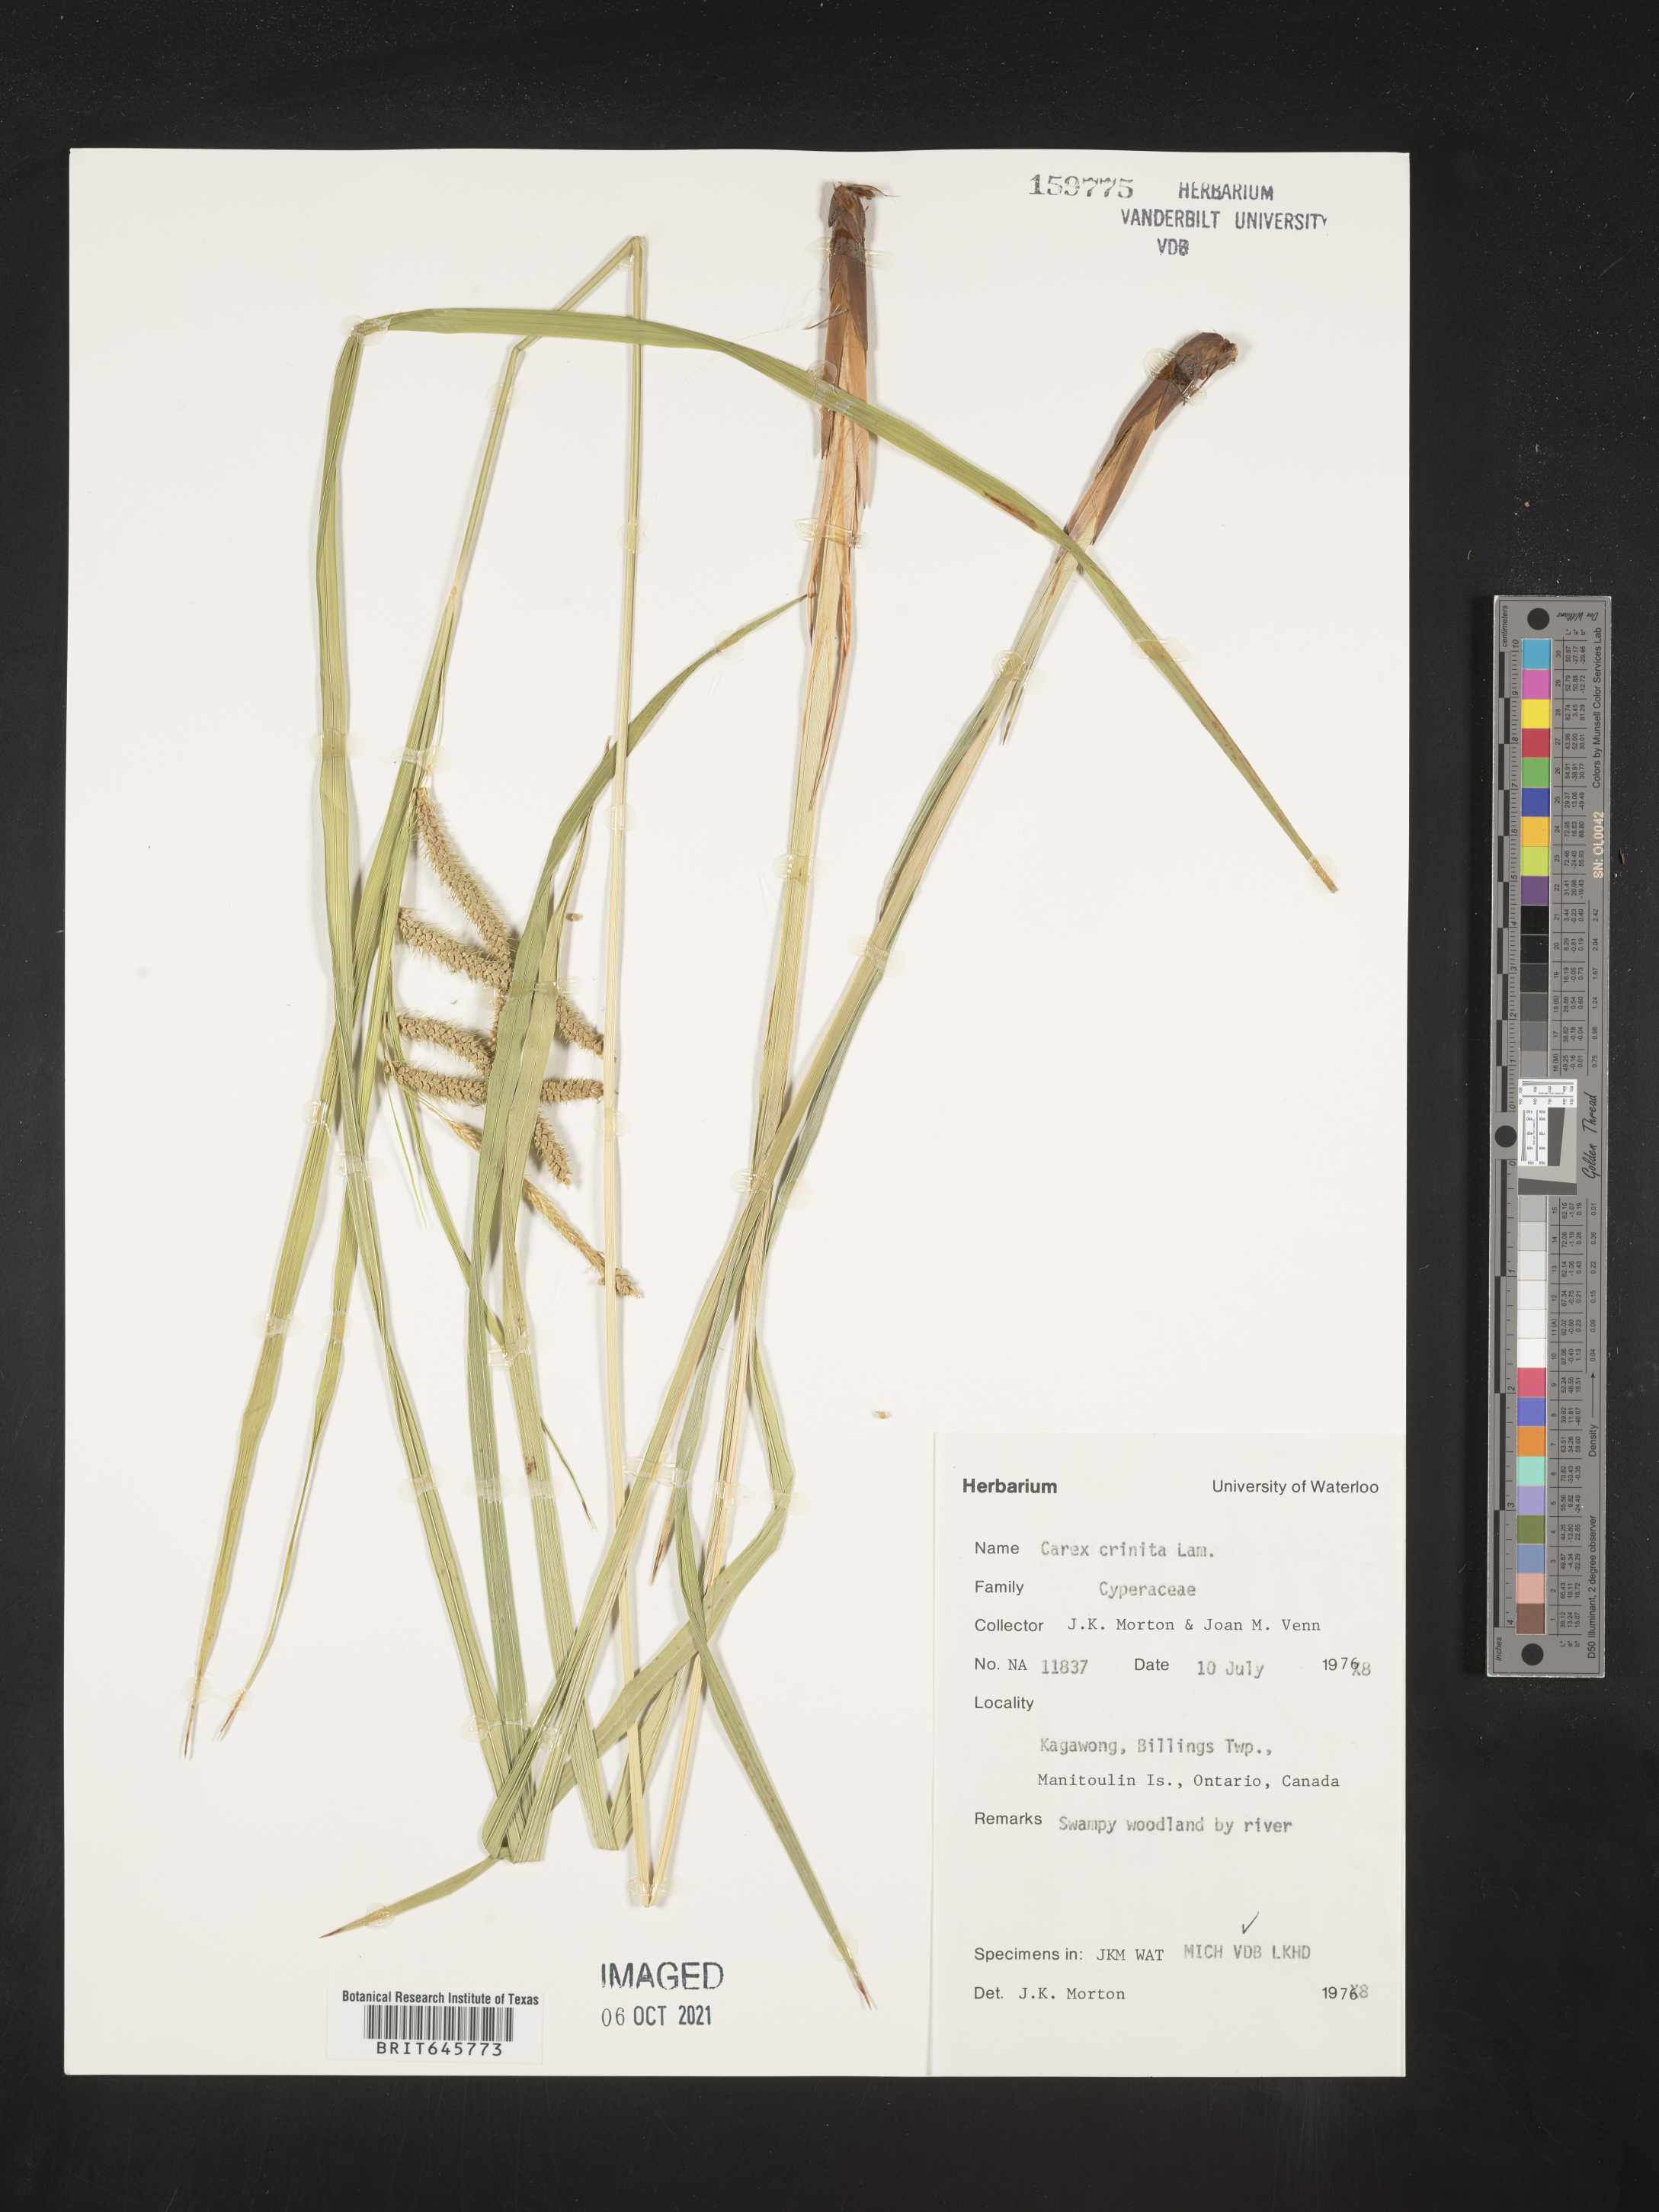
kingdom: Plantae
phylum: Tracheophyta
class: Liliopsida
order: Poales
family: Cyperaceae
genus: Carex
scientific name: Carex crinita
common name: Fringed sedge
